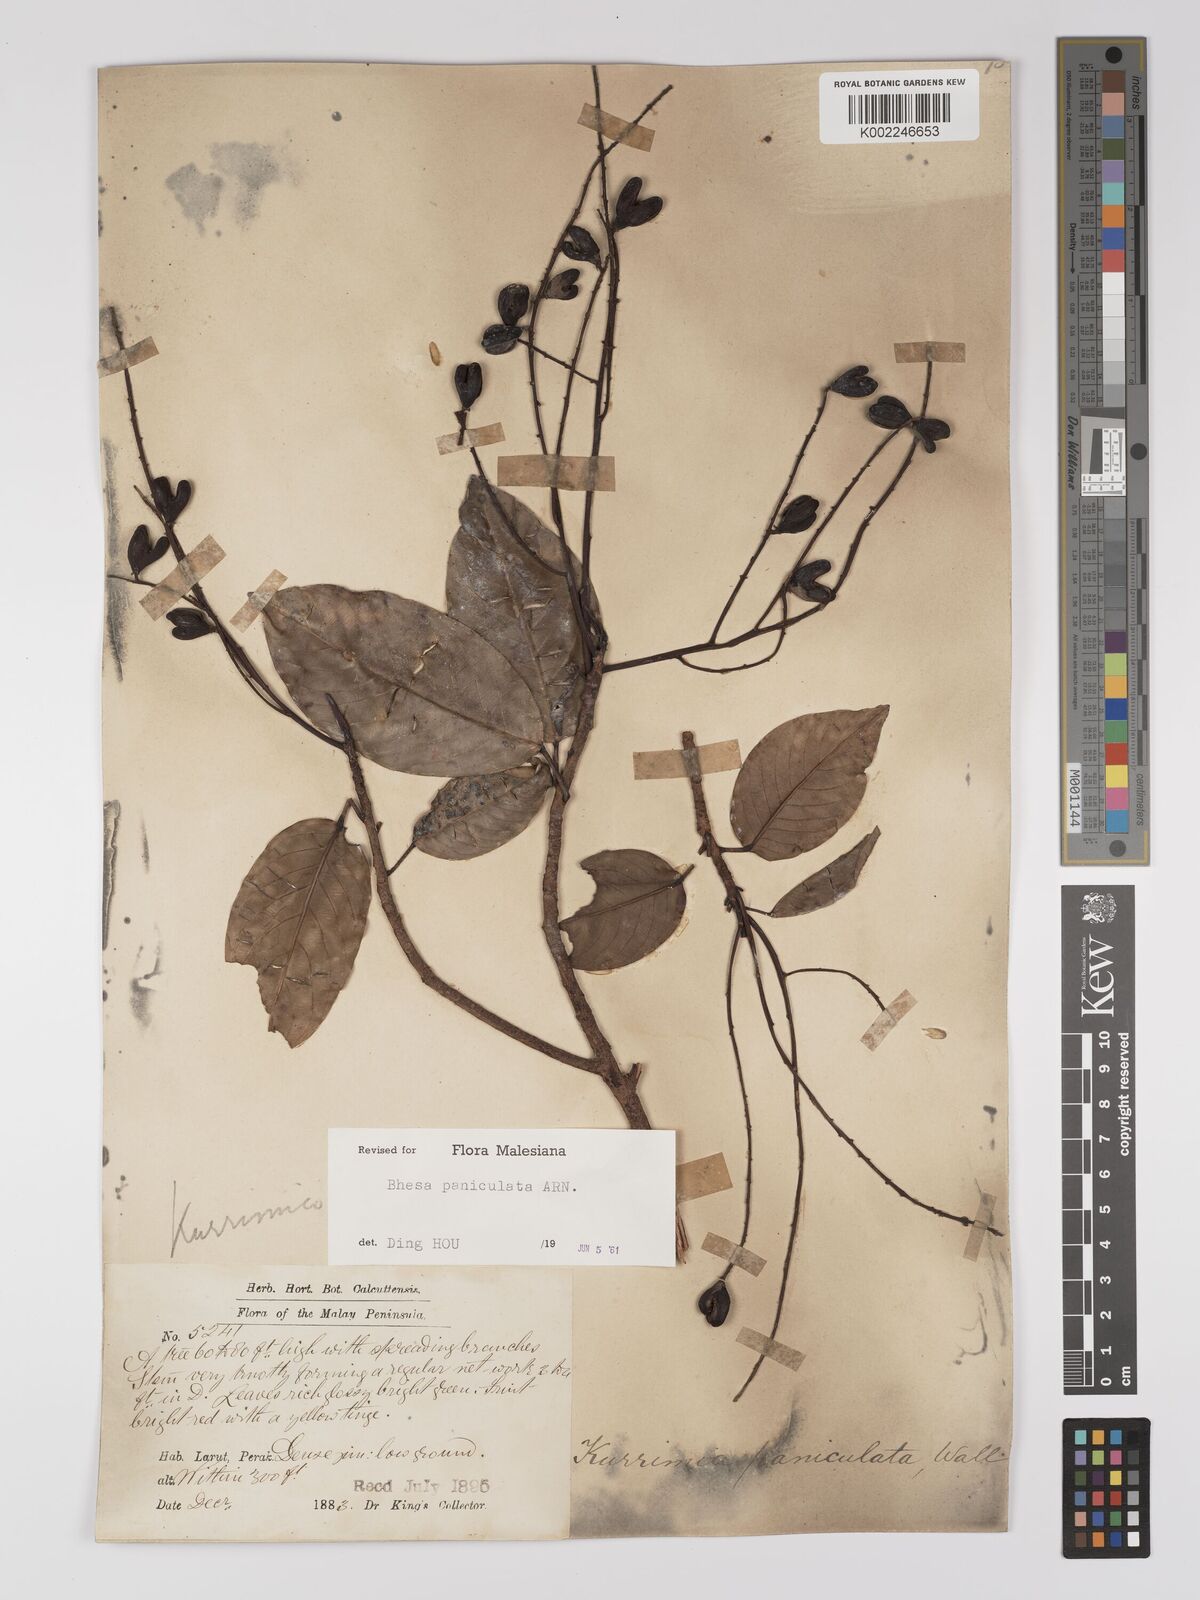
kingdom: Plantae
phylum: Tracheophyta
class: Magnoliopsida
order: Malpighiales
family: Centroplacaceae
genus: Bhesa
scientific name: Bhesa paniculata
